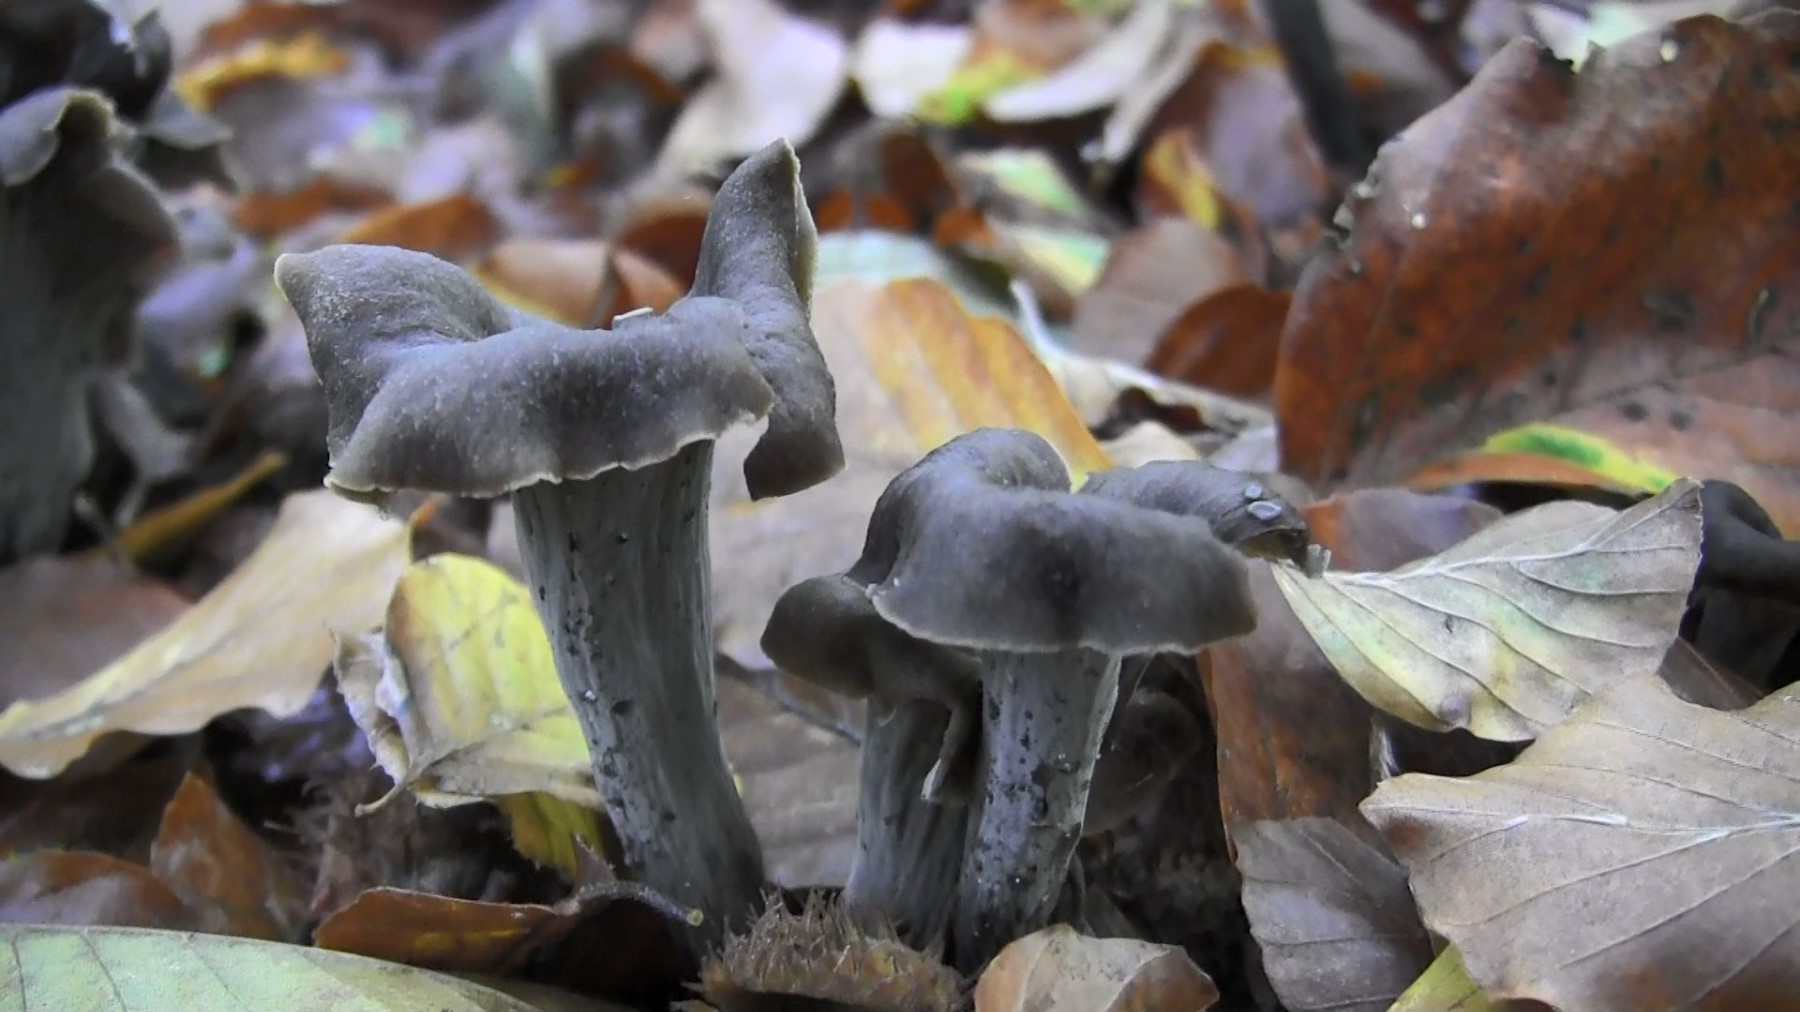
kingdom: Fungi
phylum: Basidiomycota
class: Agaricomycetes
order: Cantharellales
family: Hydnaceae
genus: Craterellus
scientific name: Craterellus cornucopioides
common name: trompetsvamp
